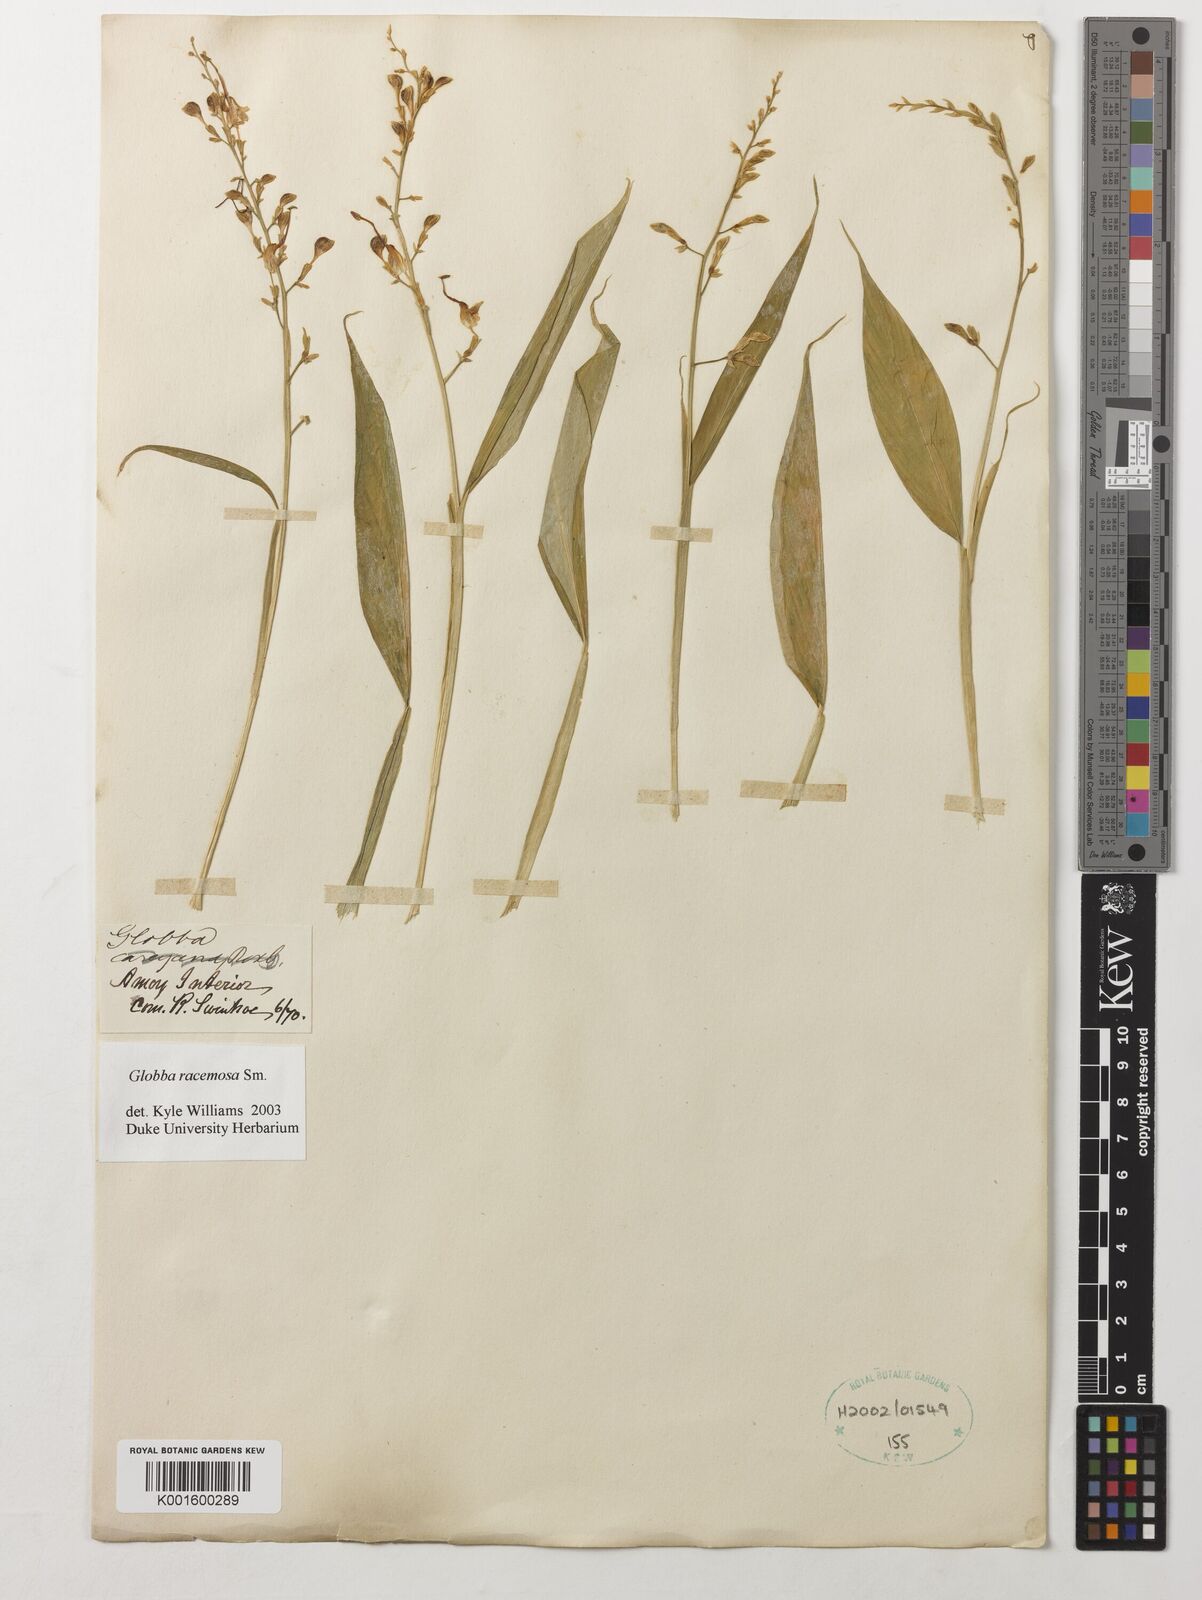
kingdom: Plantae
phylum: Tracheophyta
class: Liliopsida
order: Zingiberales
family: Zingiberaceae
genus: Globba
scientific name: Globba racemosa
